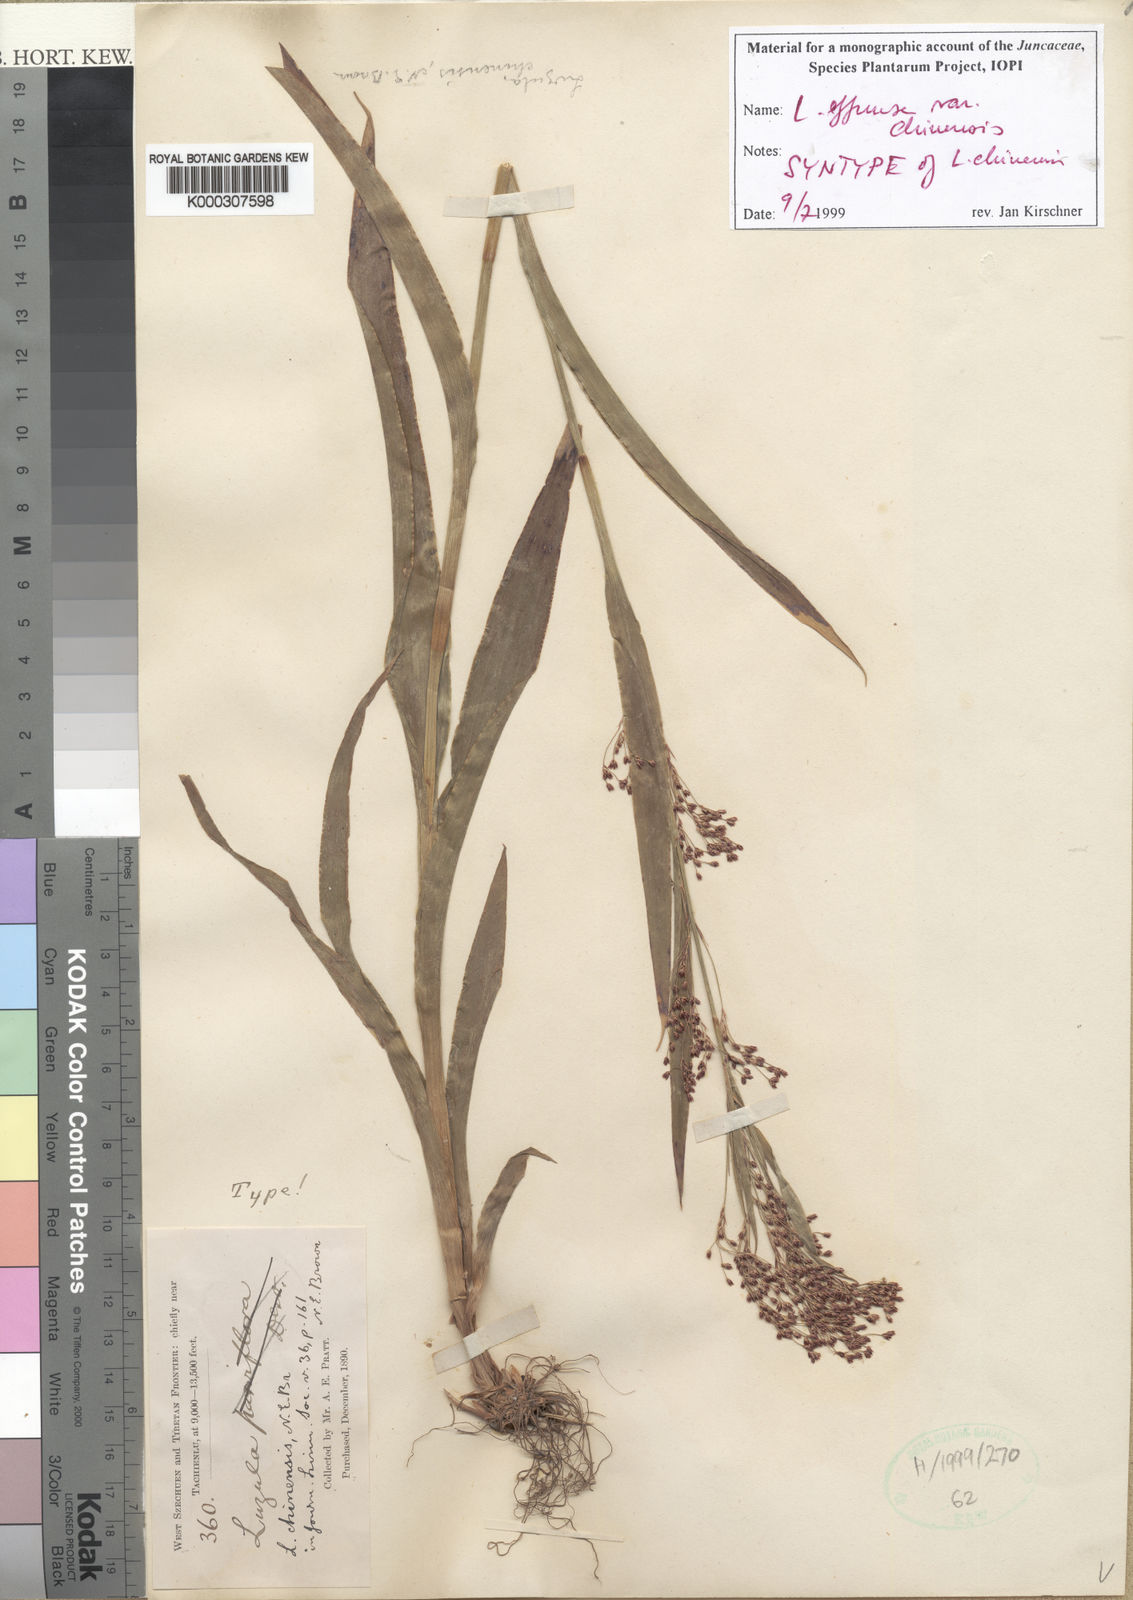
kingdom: Plantae
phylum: Tracheophyta
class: Liliopsida
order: Poales
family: Juncaceae
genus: Luzula
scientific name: Luzula effusa
